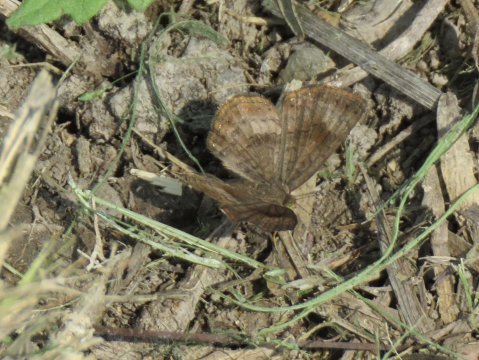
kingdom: Animalia
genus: Calephelis
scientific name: Calephelis nemesis
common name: Fatal Metalmark
